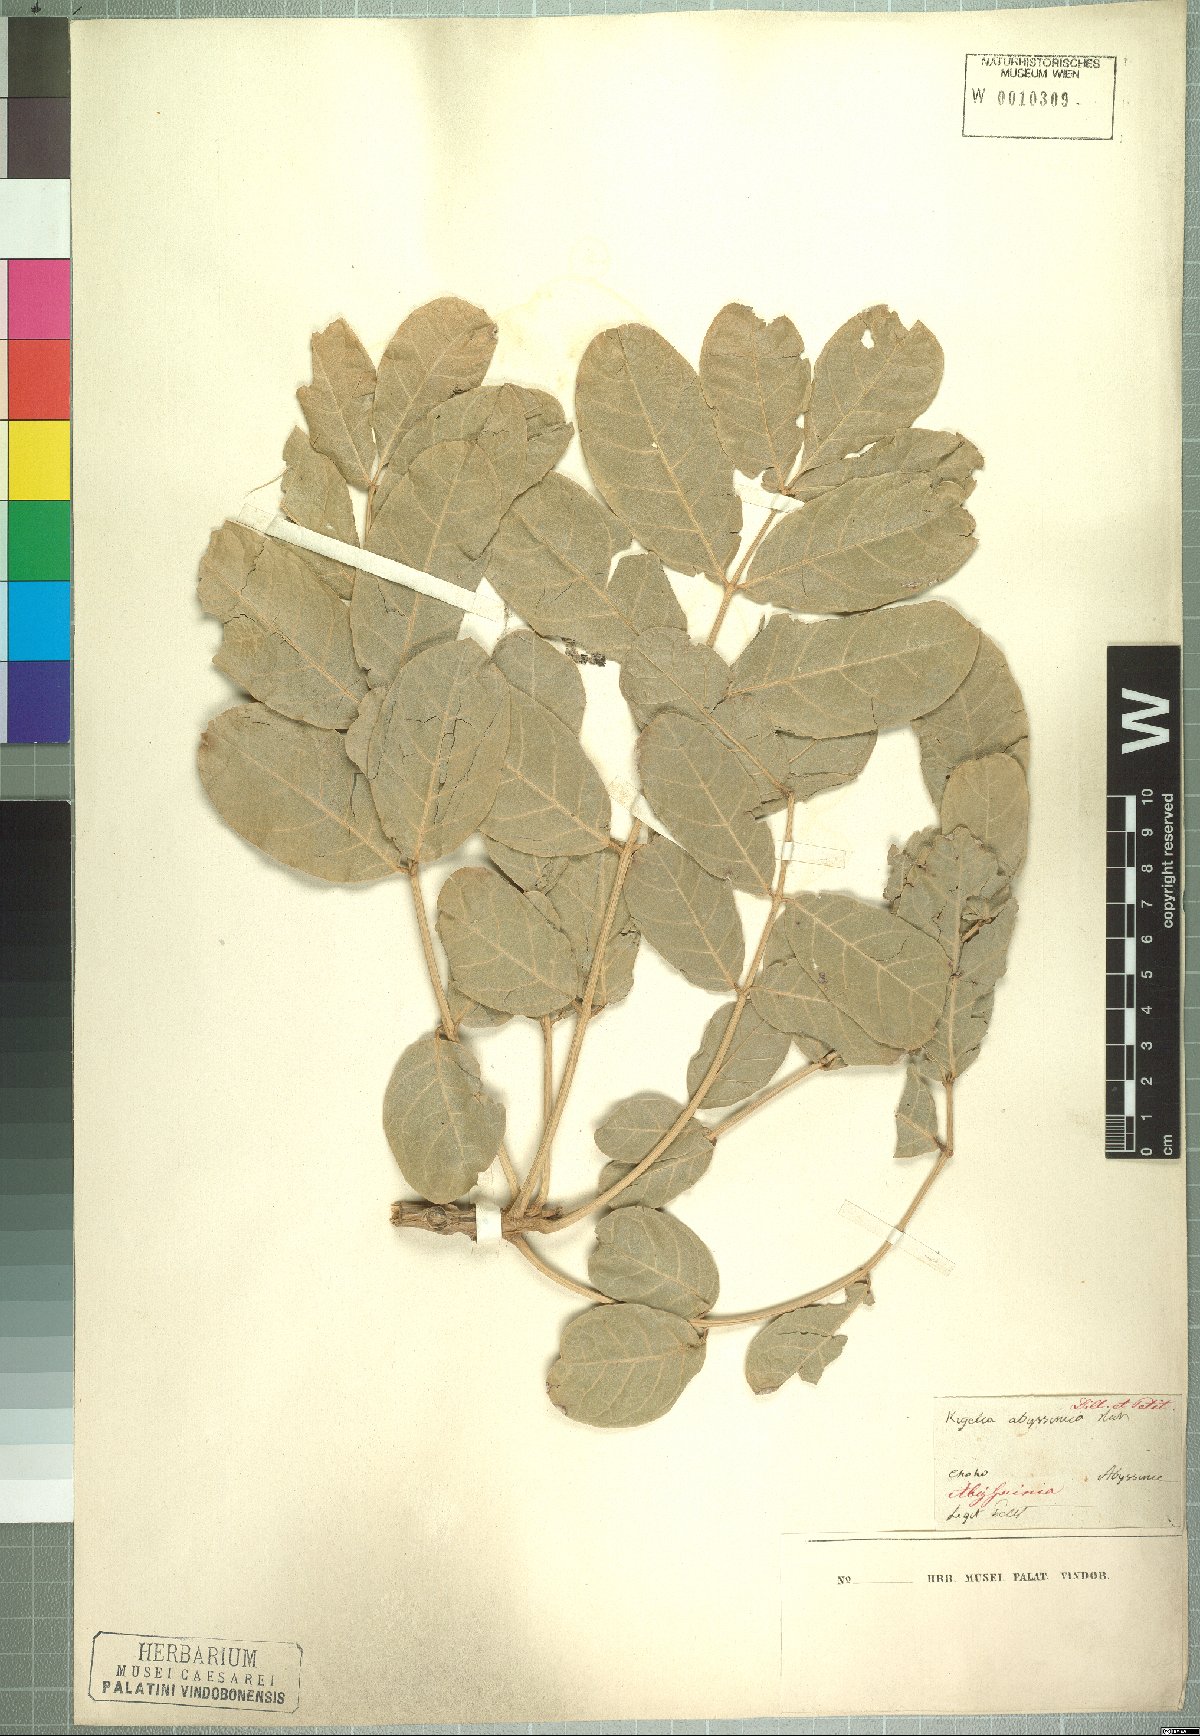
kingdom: Plantae
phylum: Tracheophyta
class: Magnoliopsida
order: Lamiales
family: Bignoniaceae
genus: Kigelia
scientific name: Kigelia africana
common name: Sausage tree
